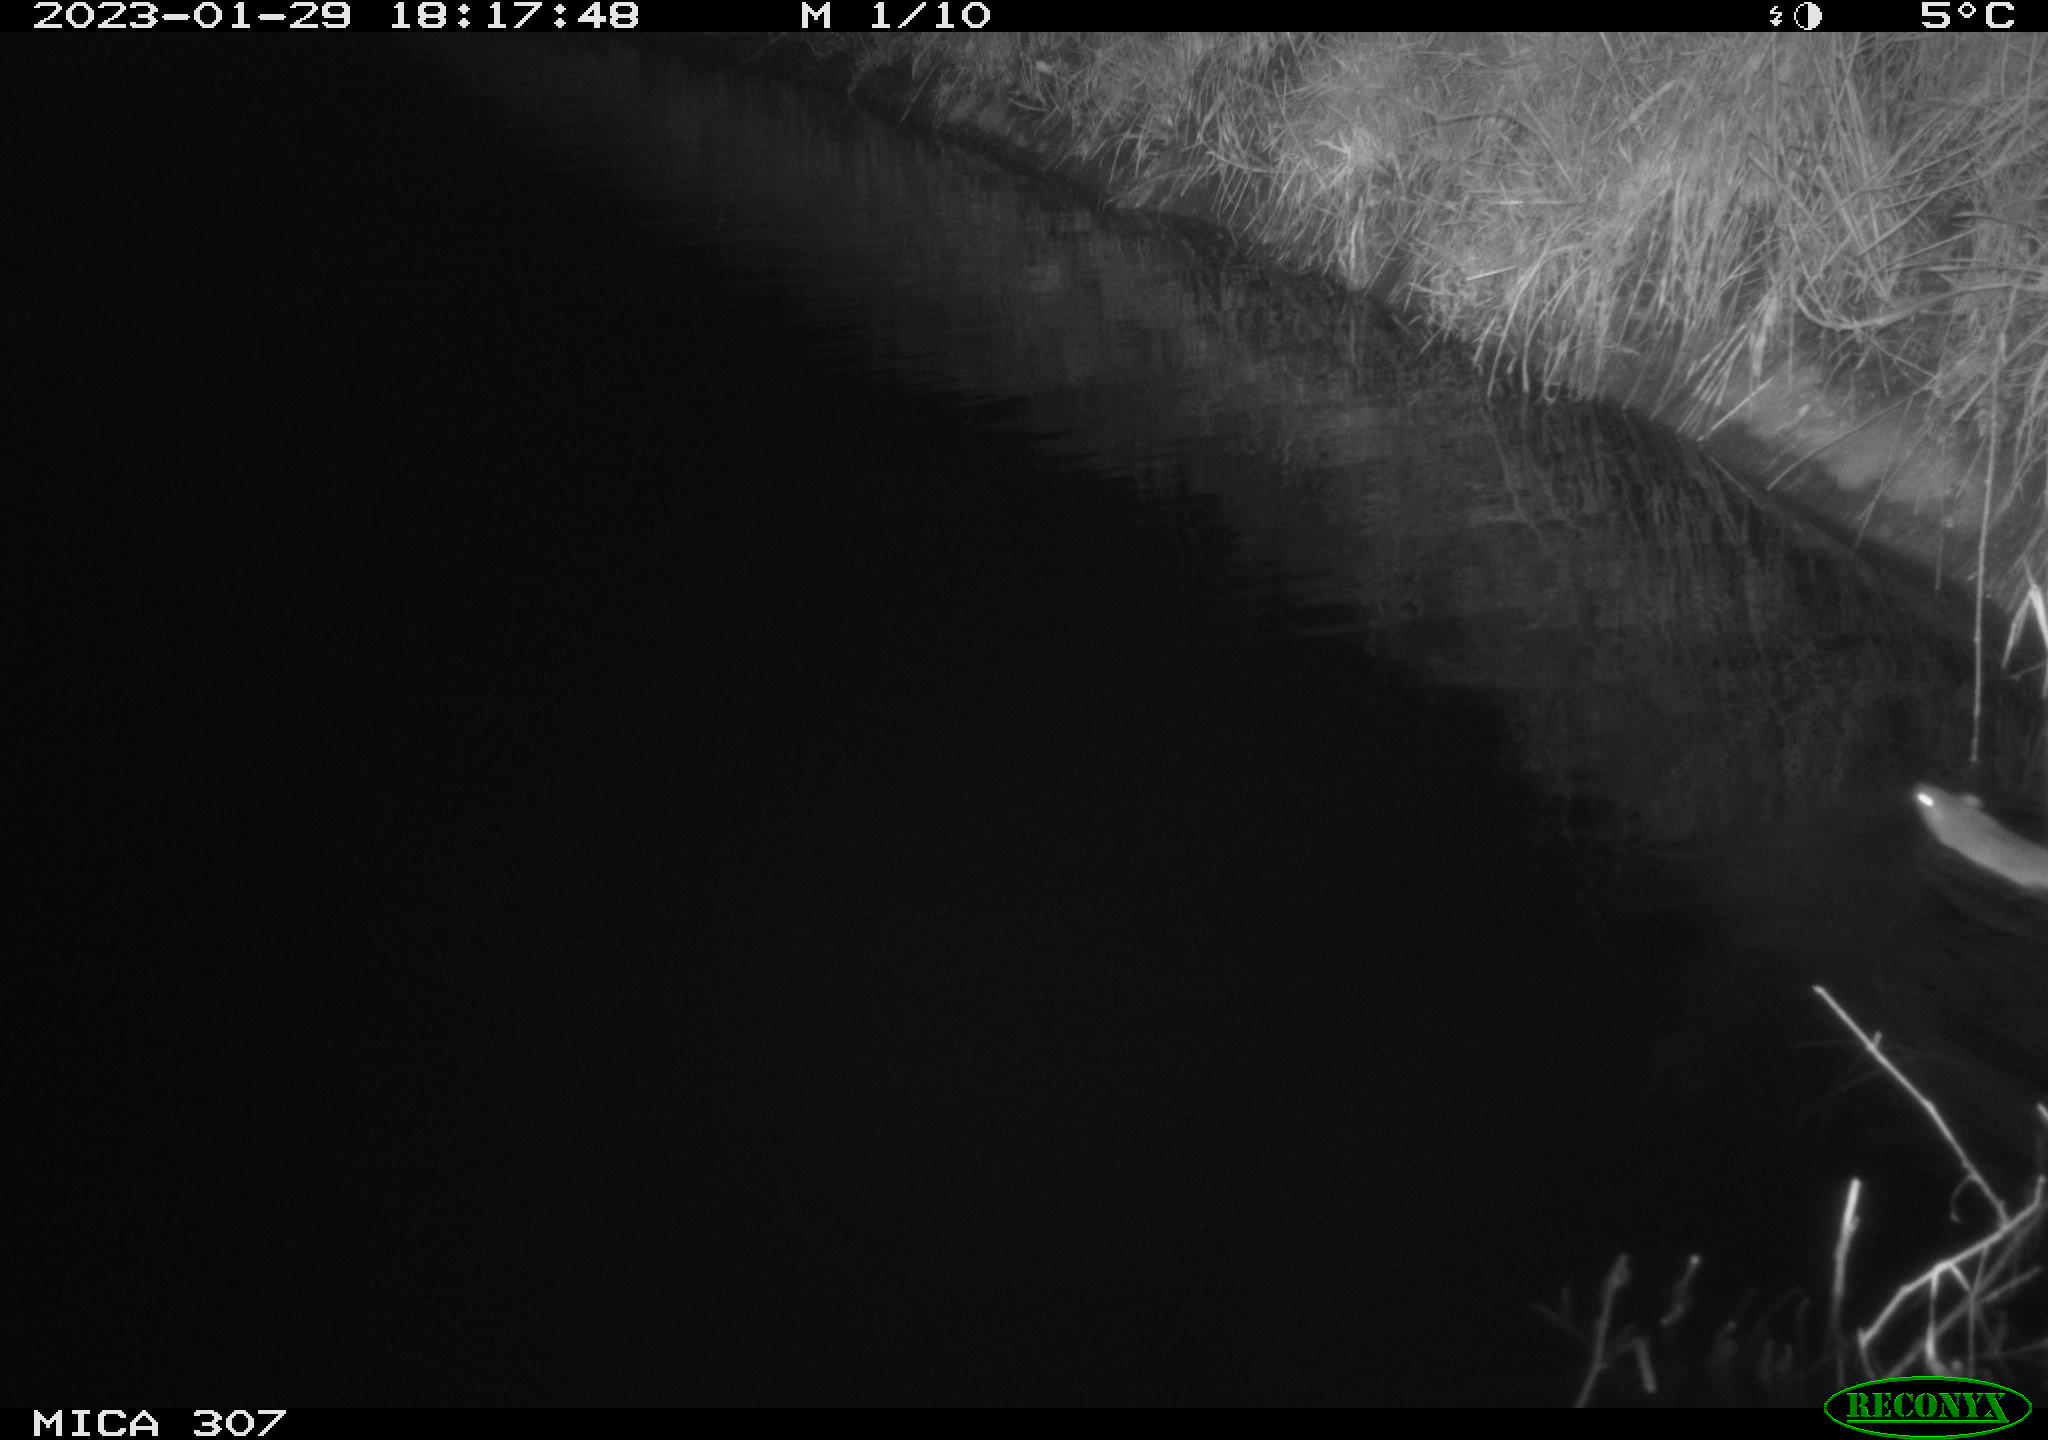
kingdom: Animalia
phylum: Chordata
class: Mammalia
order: Rodentia
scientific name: Rodentia
